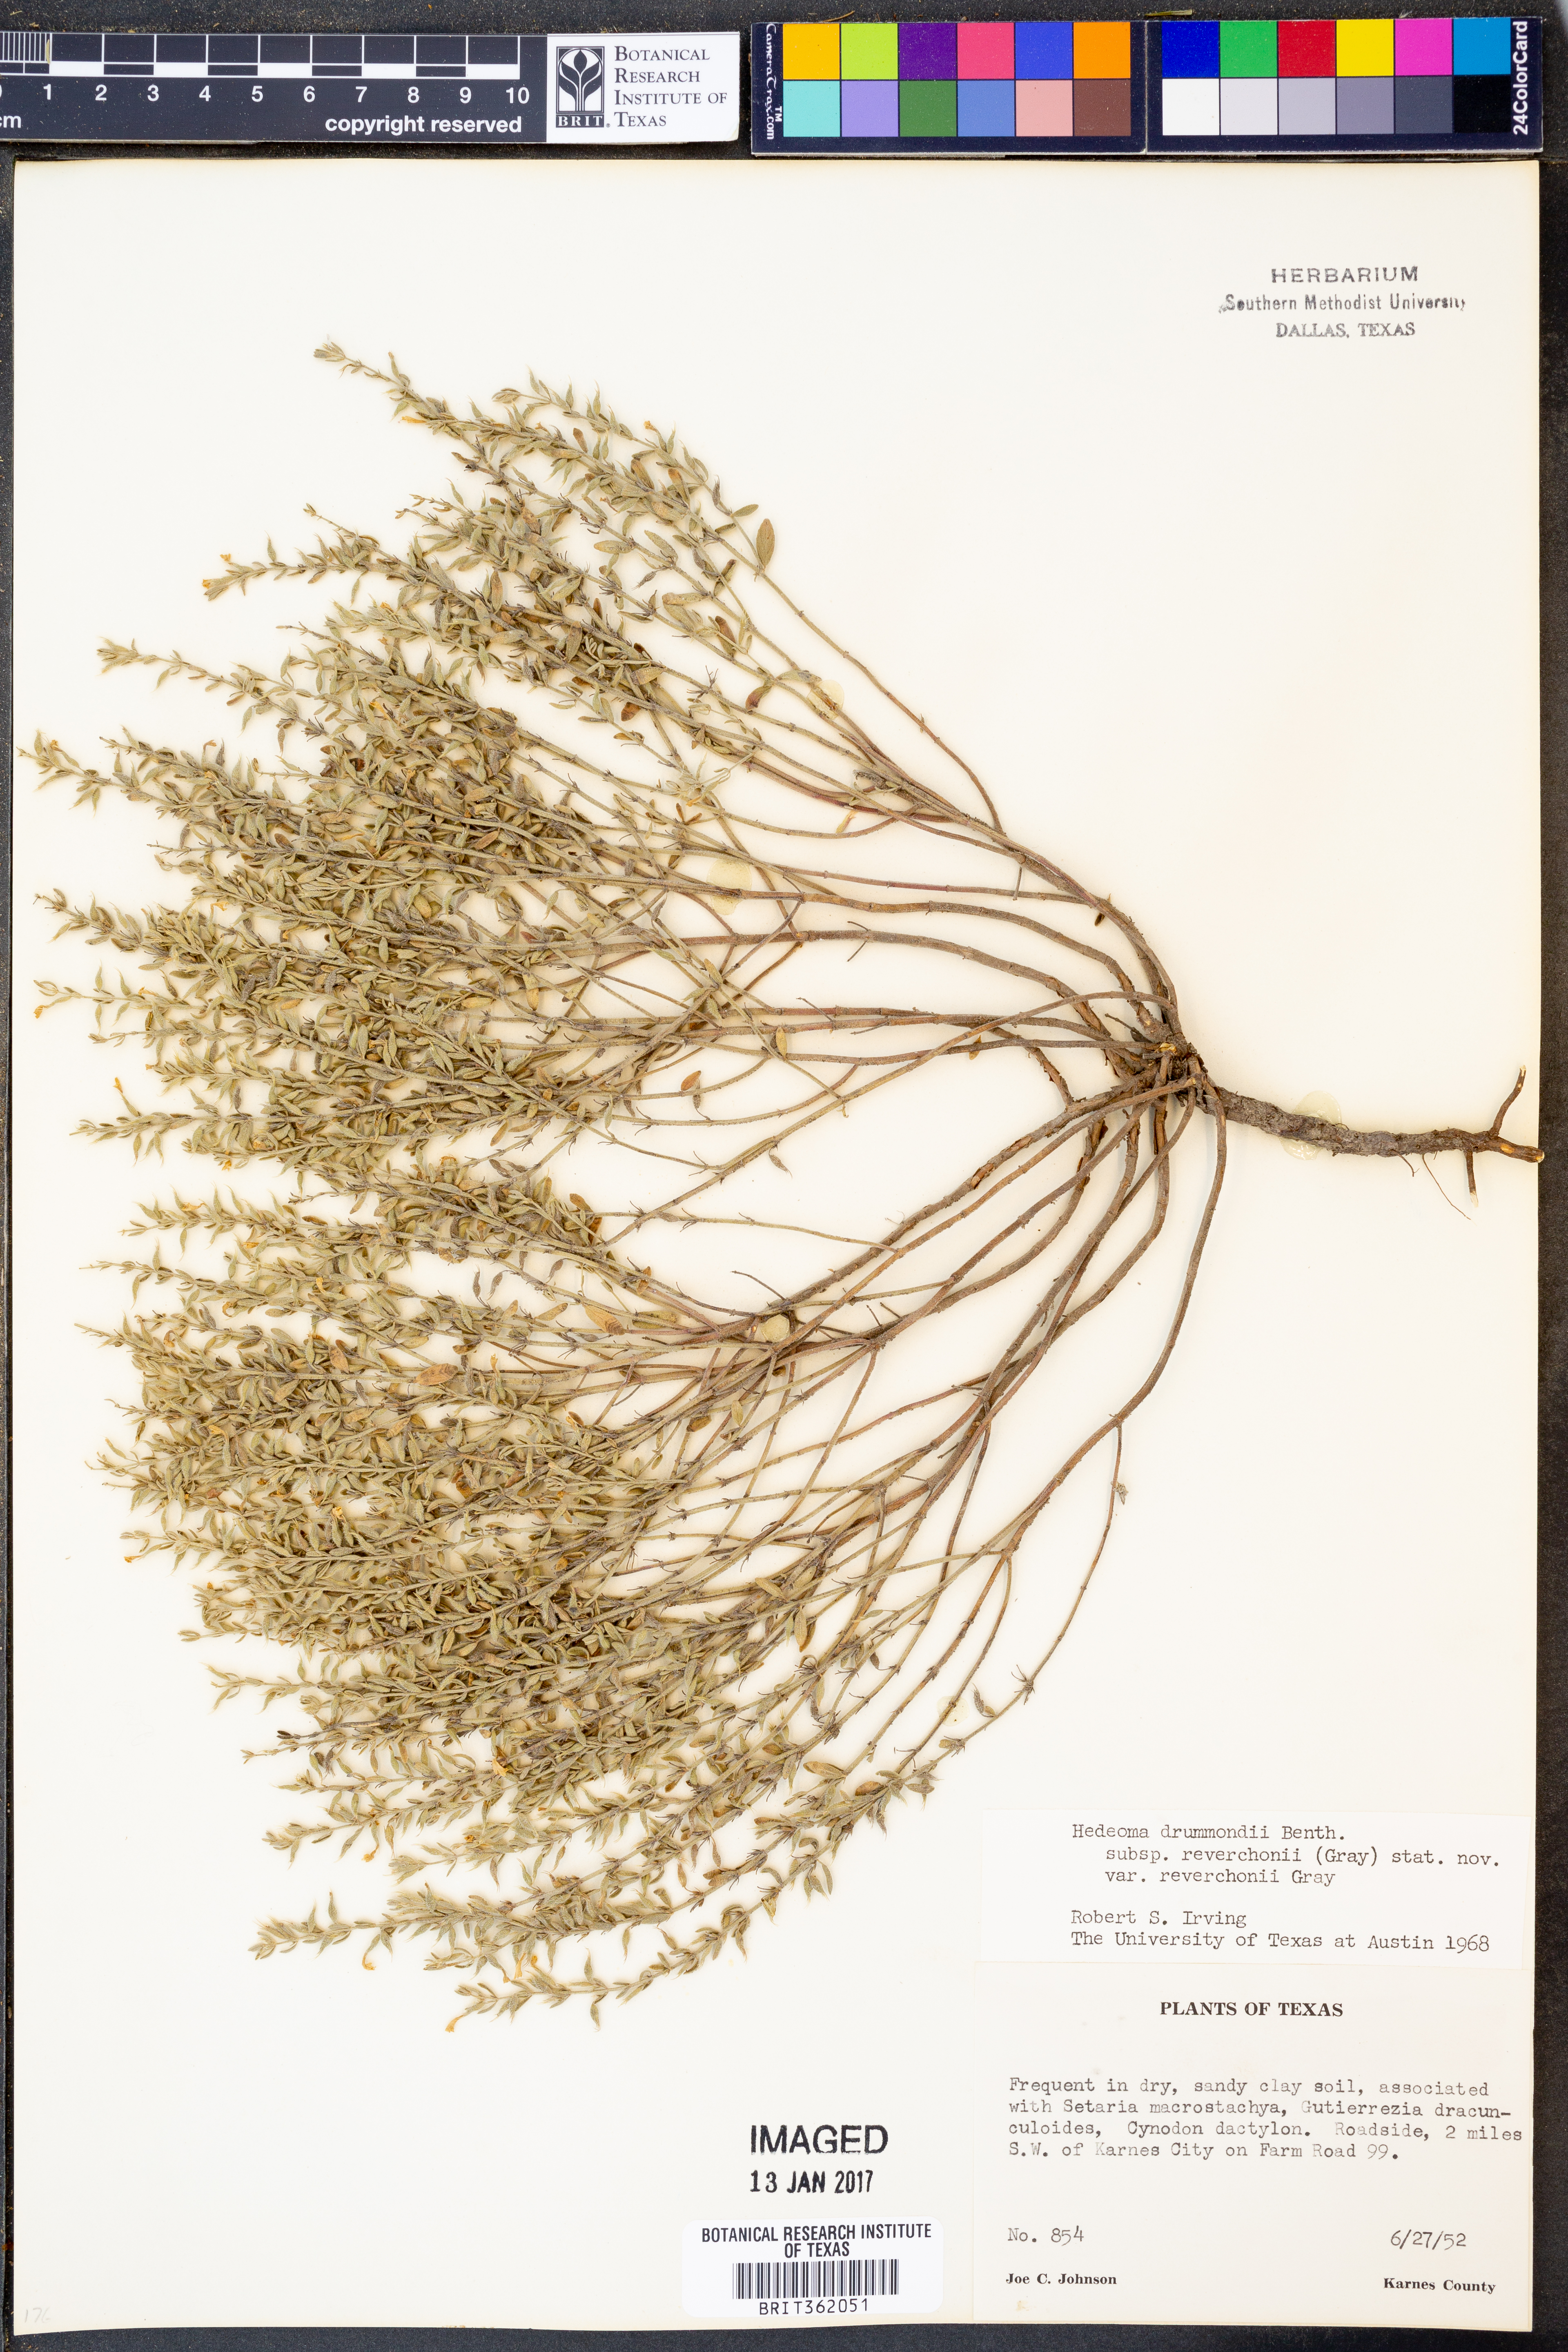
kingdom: Plantae
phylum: Tracheophyta
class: Magnoliopsida
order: Lamiales
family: Lamiaceae
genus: Hedeoma
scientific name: Hedeoma reverchonii
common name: Reverchon's false penny-royal
